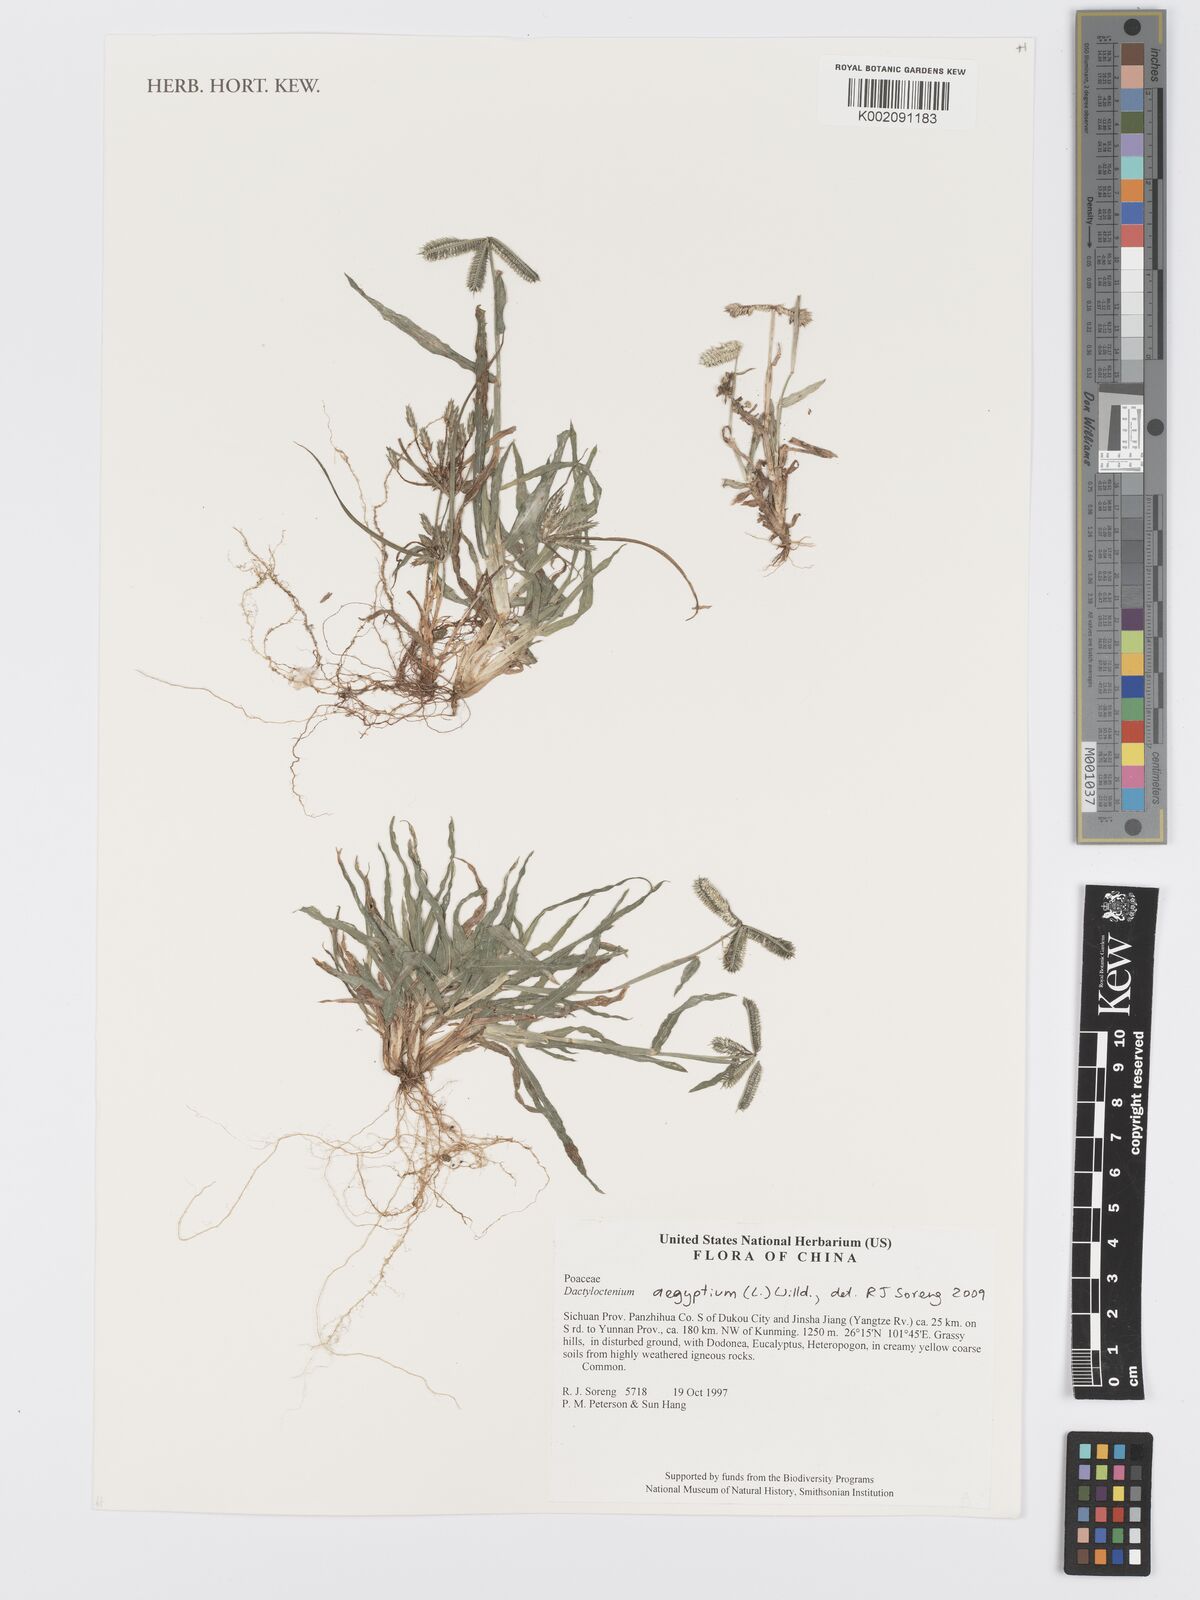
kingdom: Plantae
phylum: Tracheophyta
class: Liliopsida
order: Poales
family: Poaceae
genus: Dactyloctenium
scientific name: Dactyloctenium aegyptium
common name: Egyptian grass
